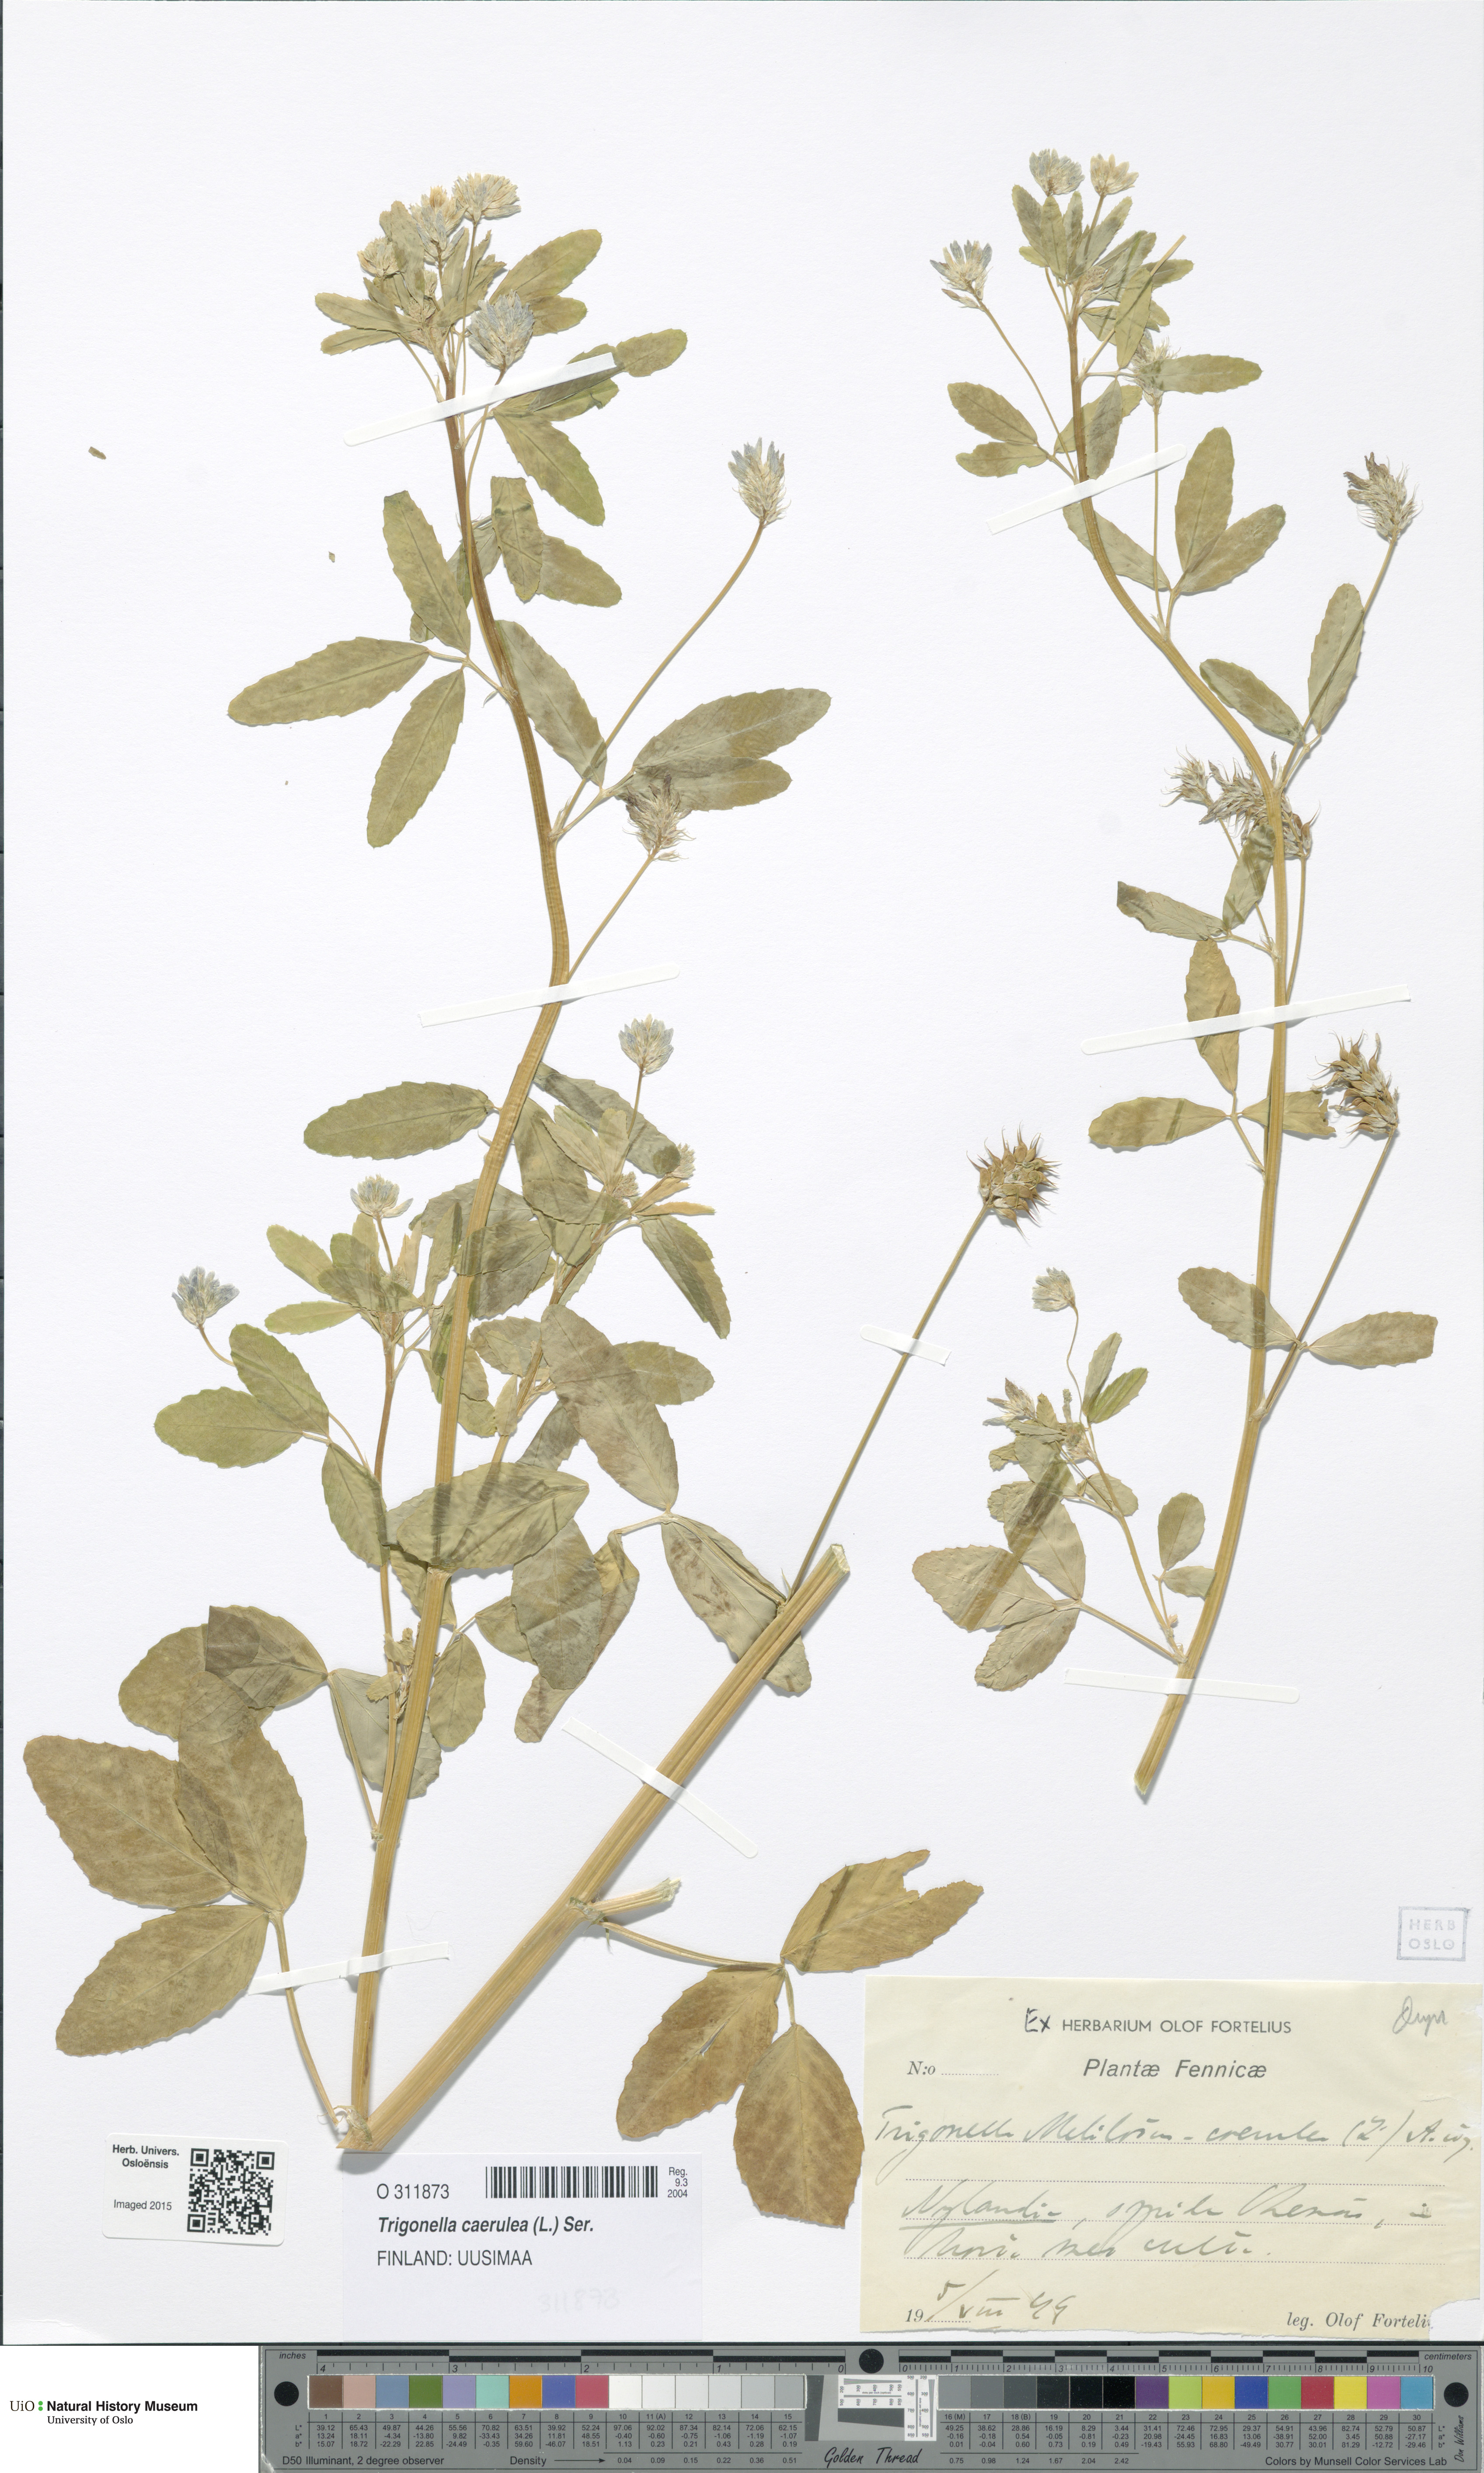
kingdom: Plantae
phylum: Tracheophyta
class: Magnoliopsida
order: Fabales
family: Fabaceae
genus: Trigonella
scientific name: Trigonella caerulea
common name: Blue fenugreek
